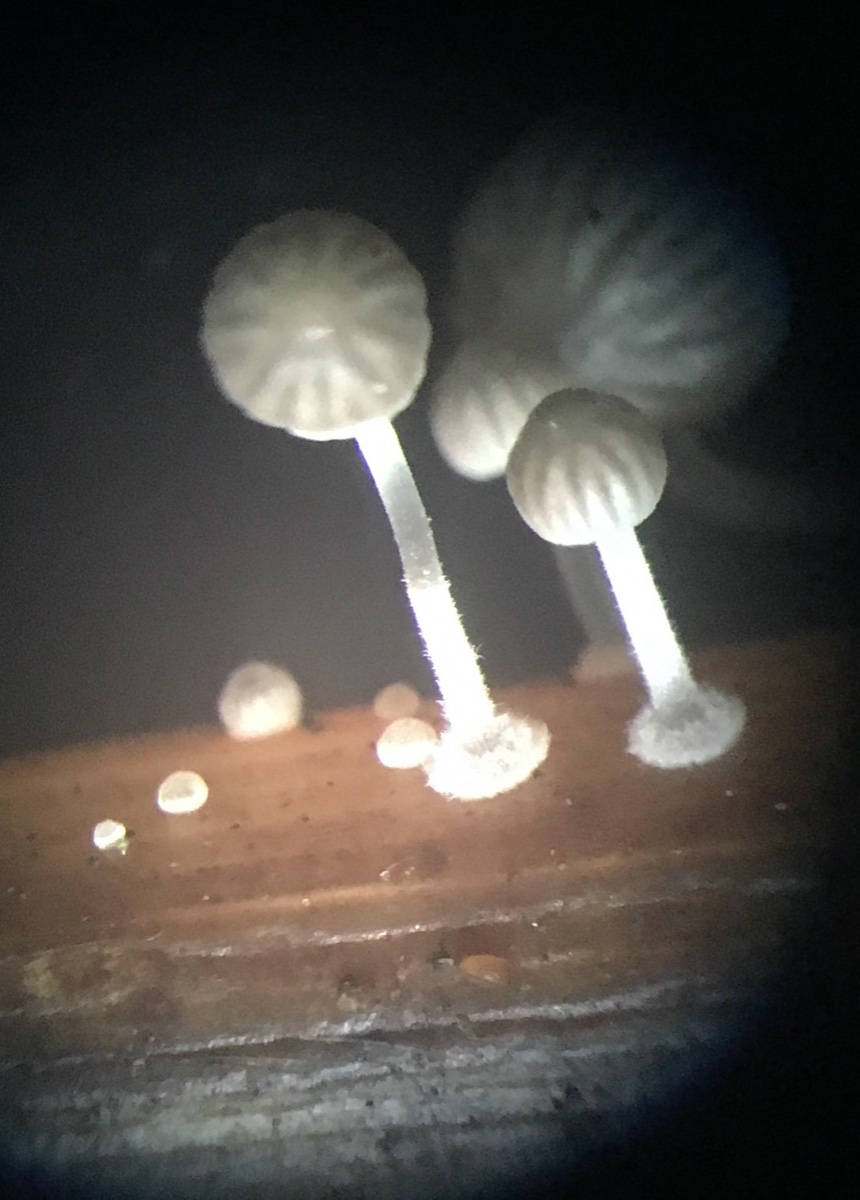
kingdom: Fungi
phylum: Basidiomycota
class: Agaricomycetes
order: Agaricales
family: Mycenaceae
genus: Mycena
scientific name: Mycena bulbosa
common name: siv-huesvamp
